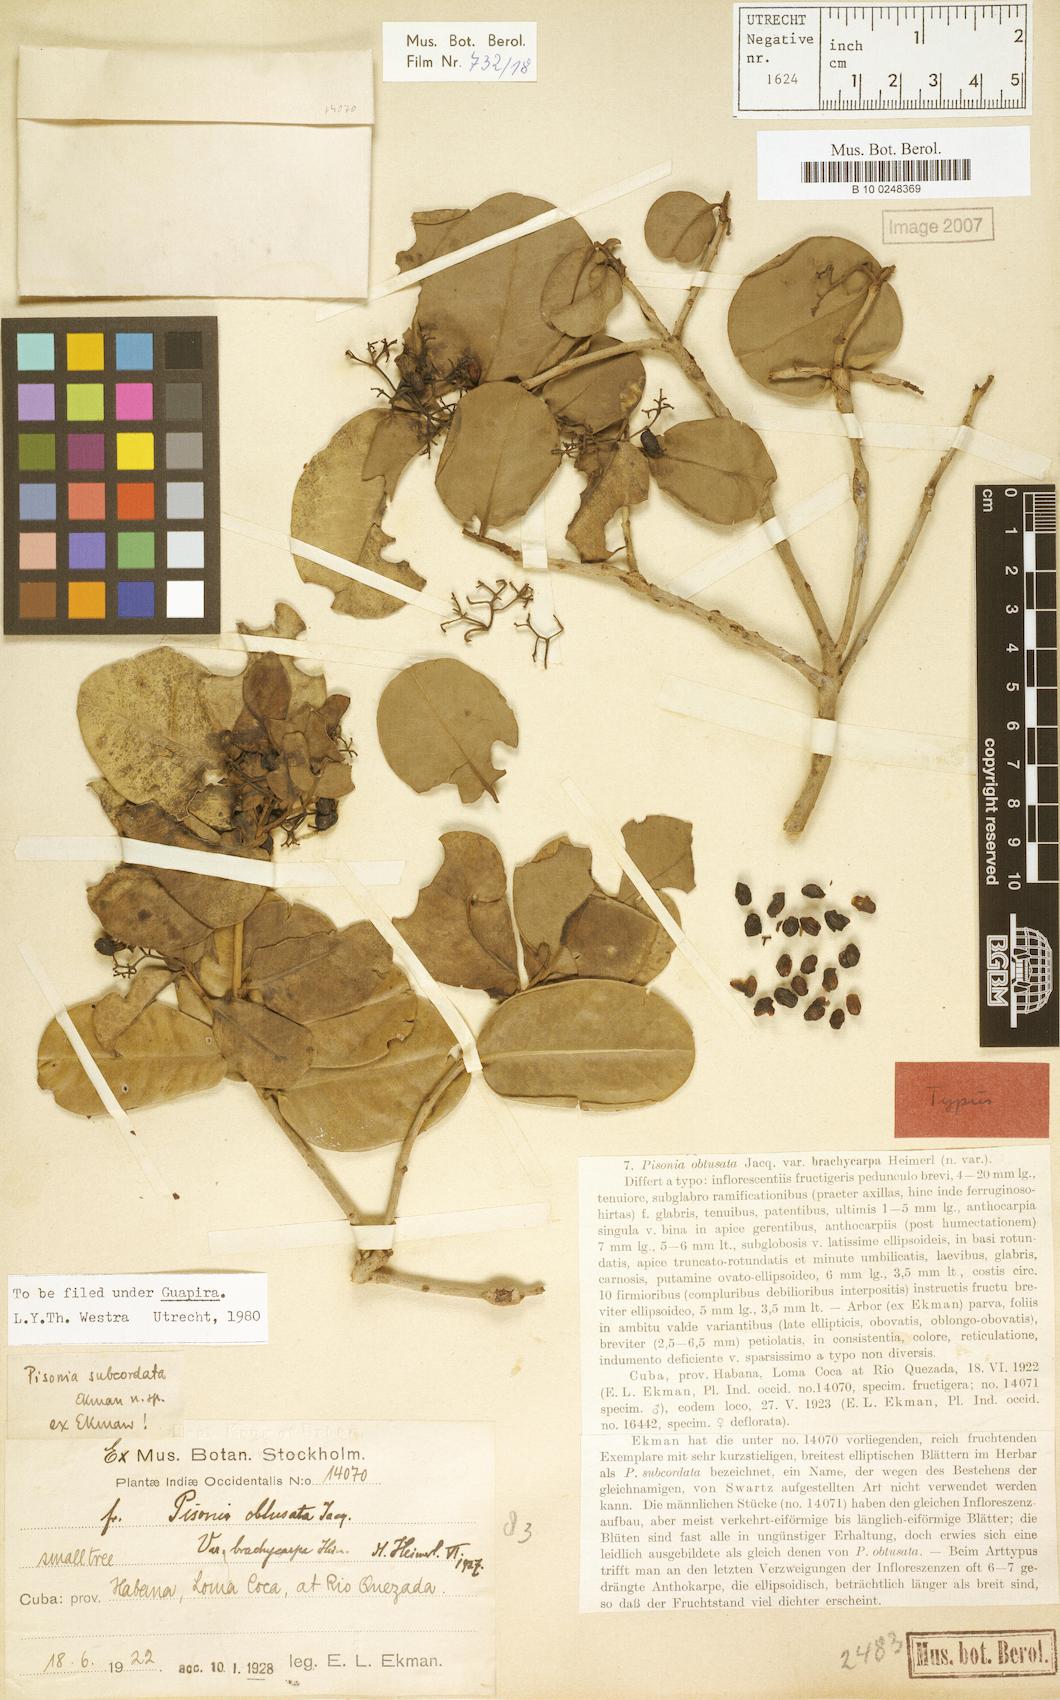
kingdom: Plantae
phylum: Tracheophyta
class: Magnoliopsida
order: Caryophyllales
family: Nyctaginaceae
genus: Guapira
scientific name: Guapira obtusata
